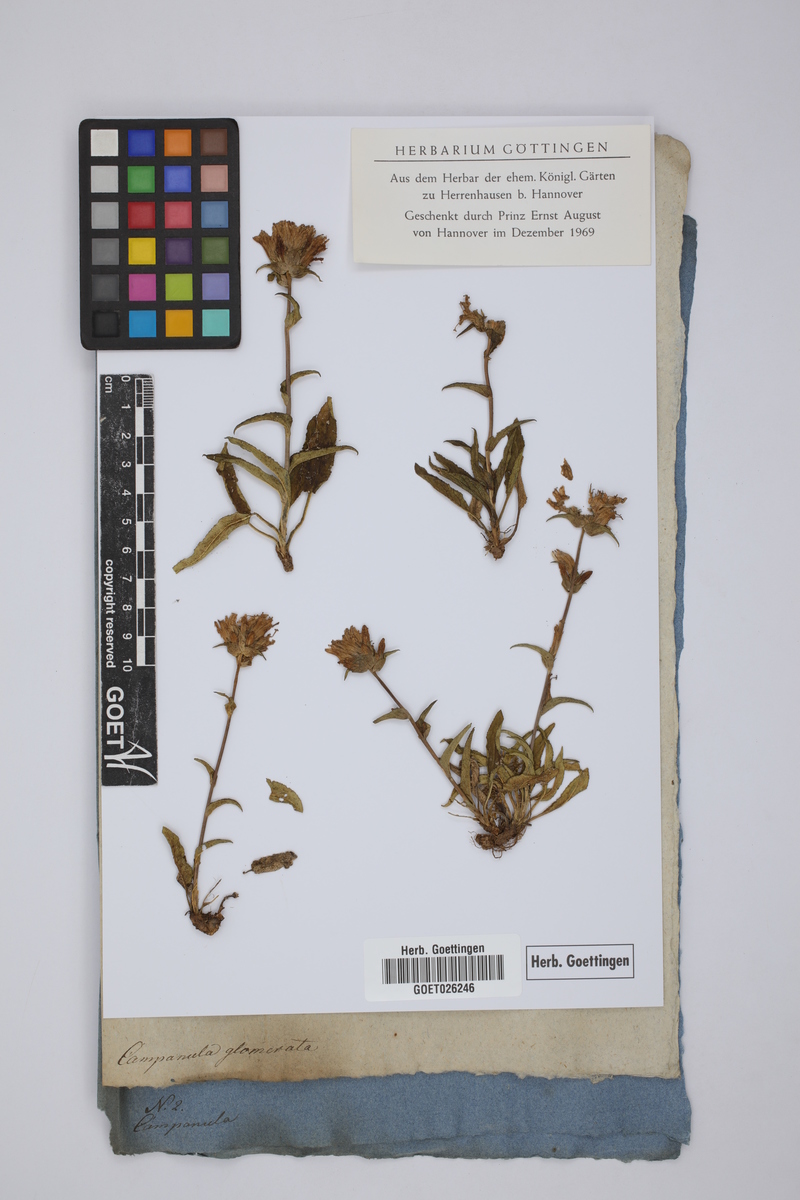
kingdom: Plantae
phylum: Tracheophyta
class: Magnoliopsida
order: Asterales
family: Campanulaceae
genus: Campanula
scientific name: Campanula glomerata
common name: Clustered bellflower
